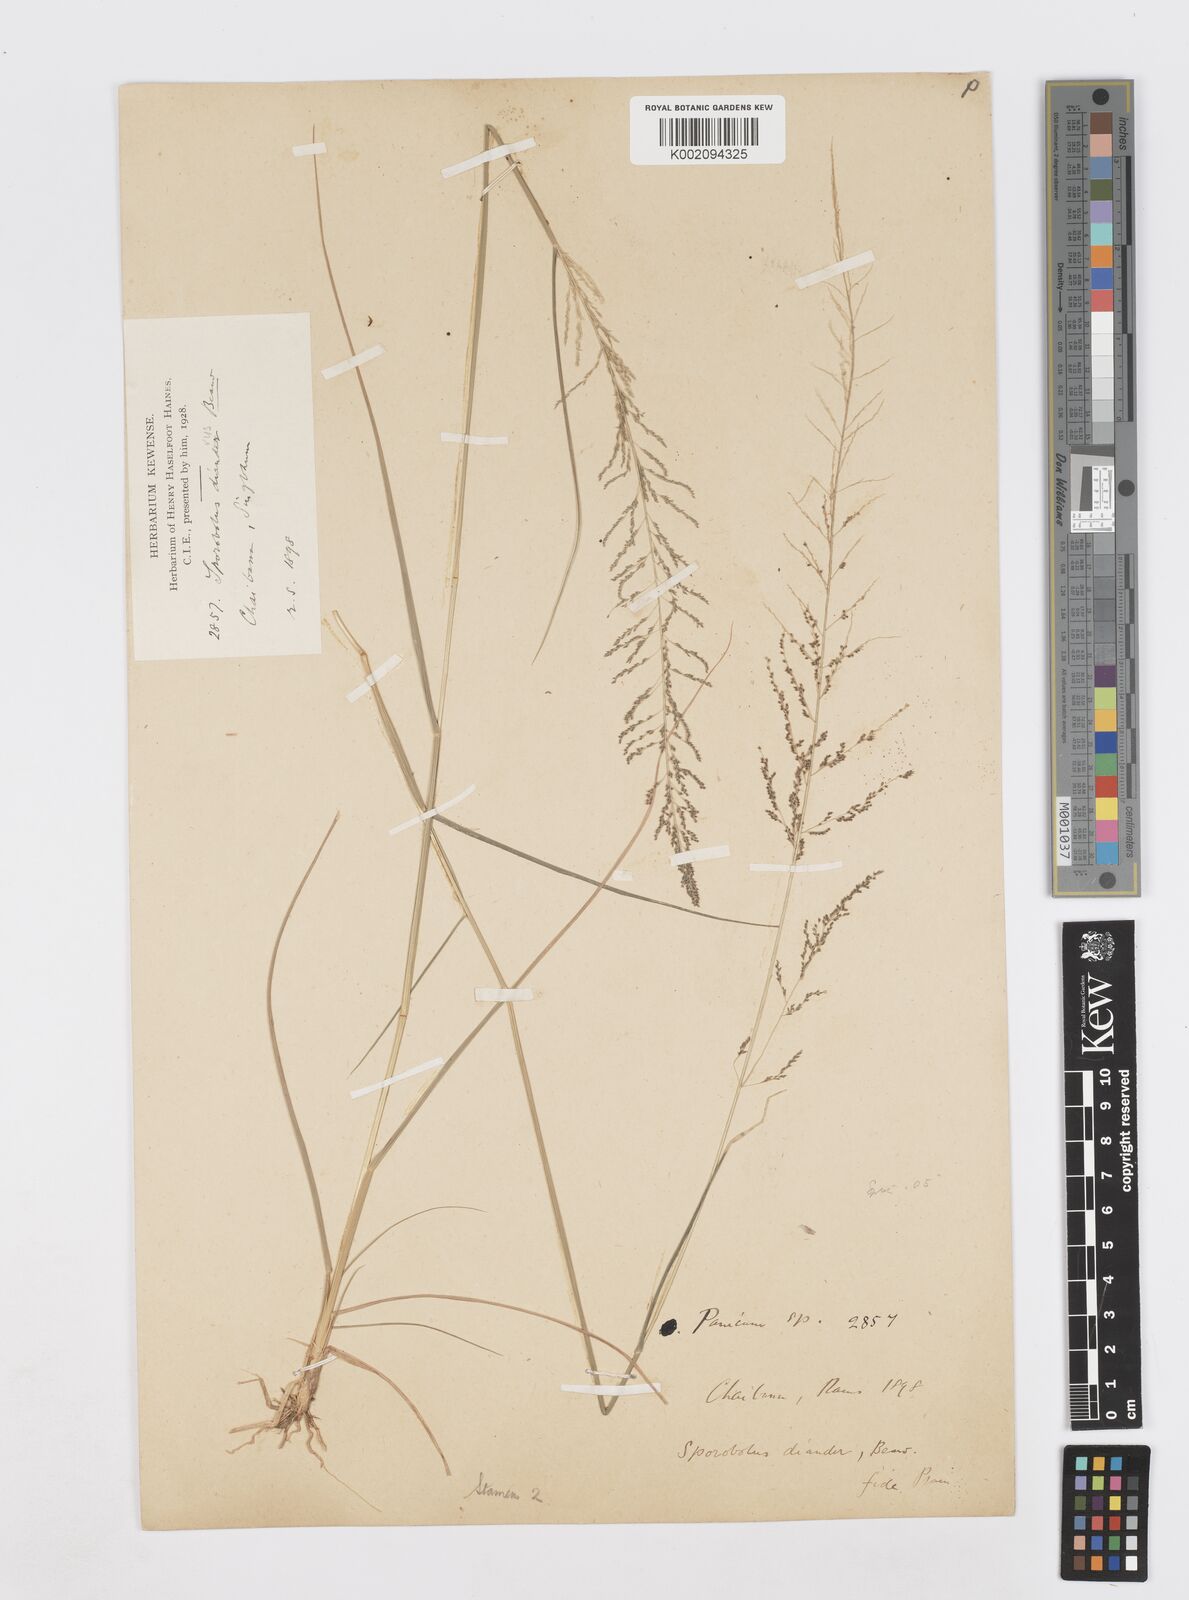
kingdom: Plantae
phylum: Tracheophyta
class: Liliopsida
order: Poales
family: Poaceae
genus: Sporobolus
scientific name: Sporobolus diandrus
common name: Tussock dropseed
